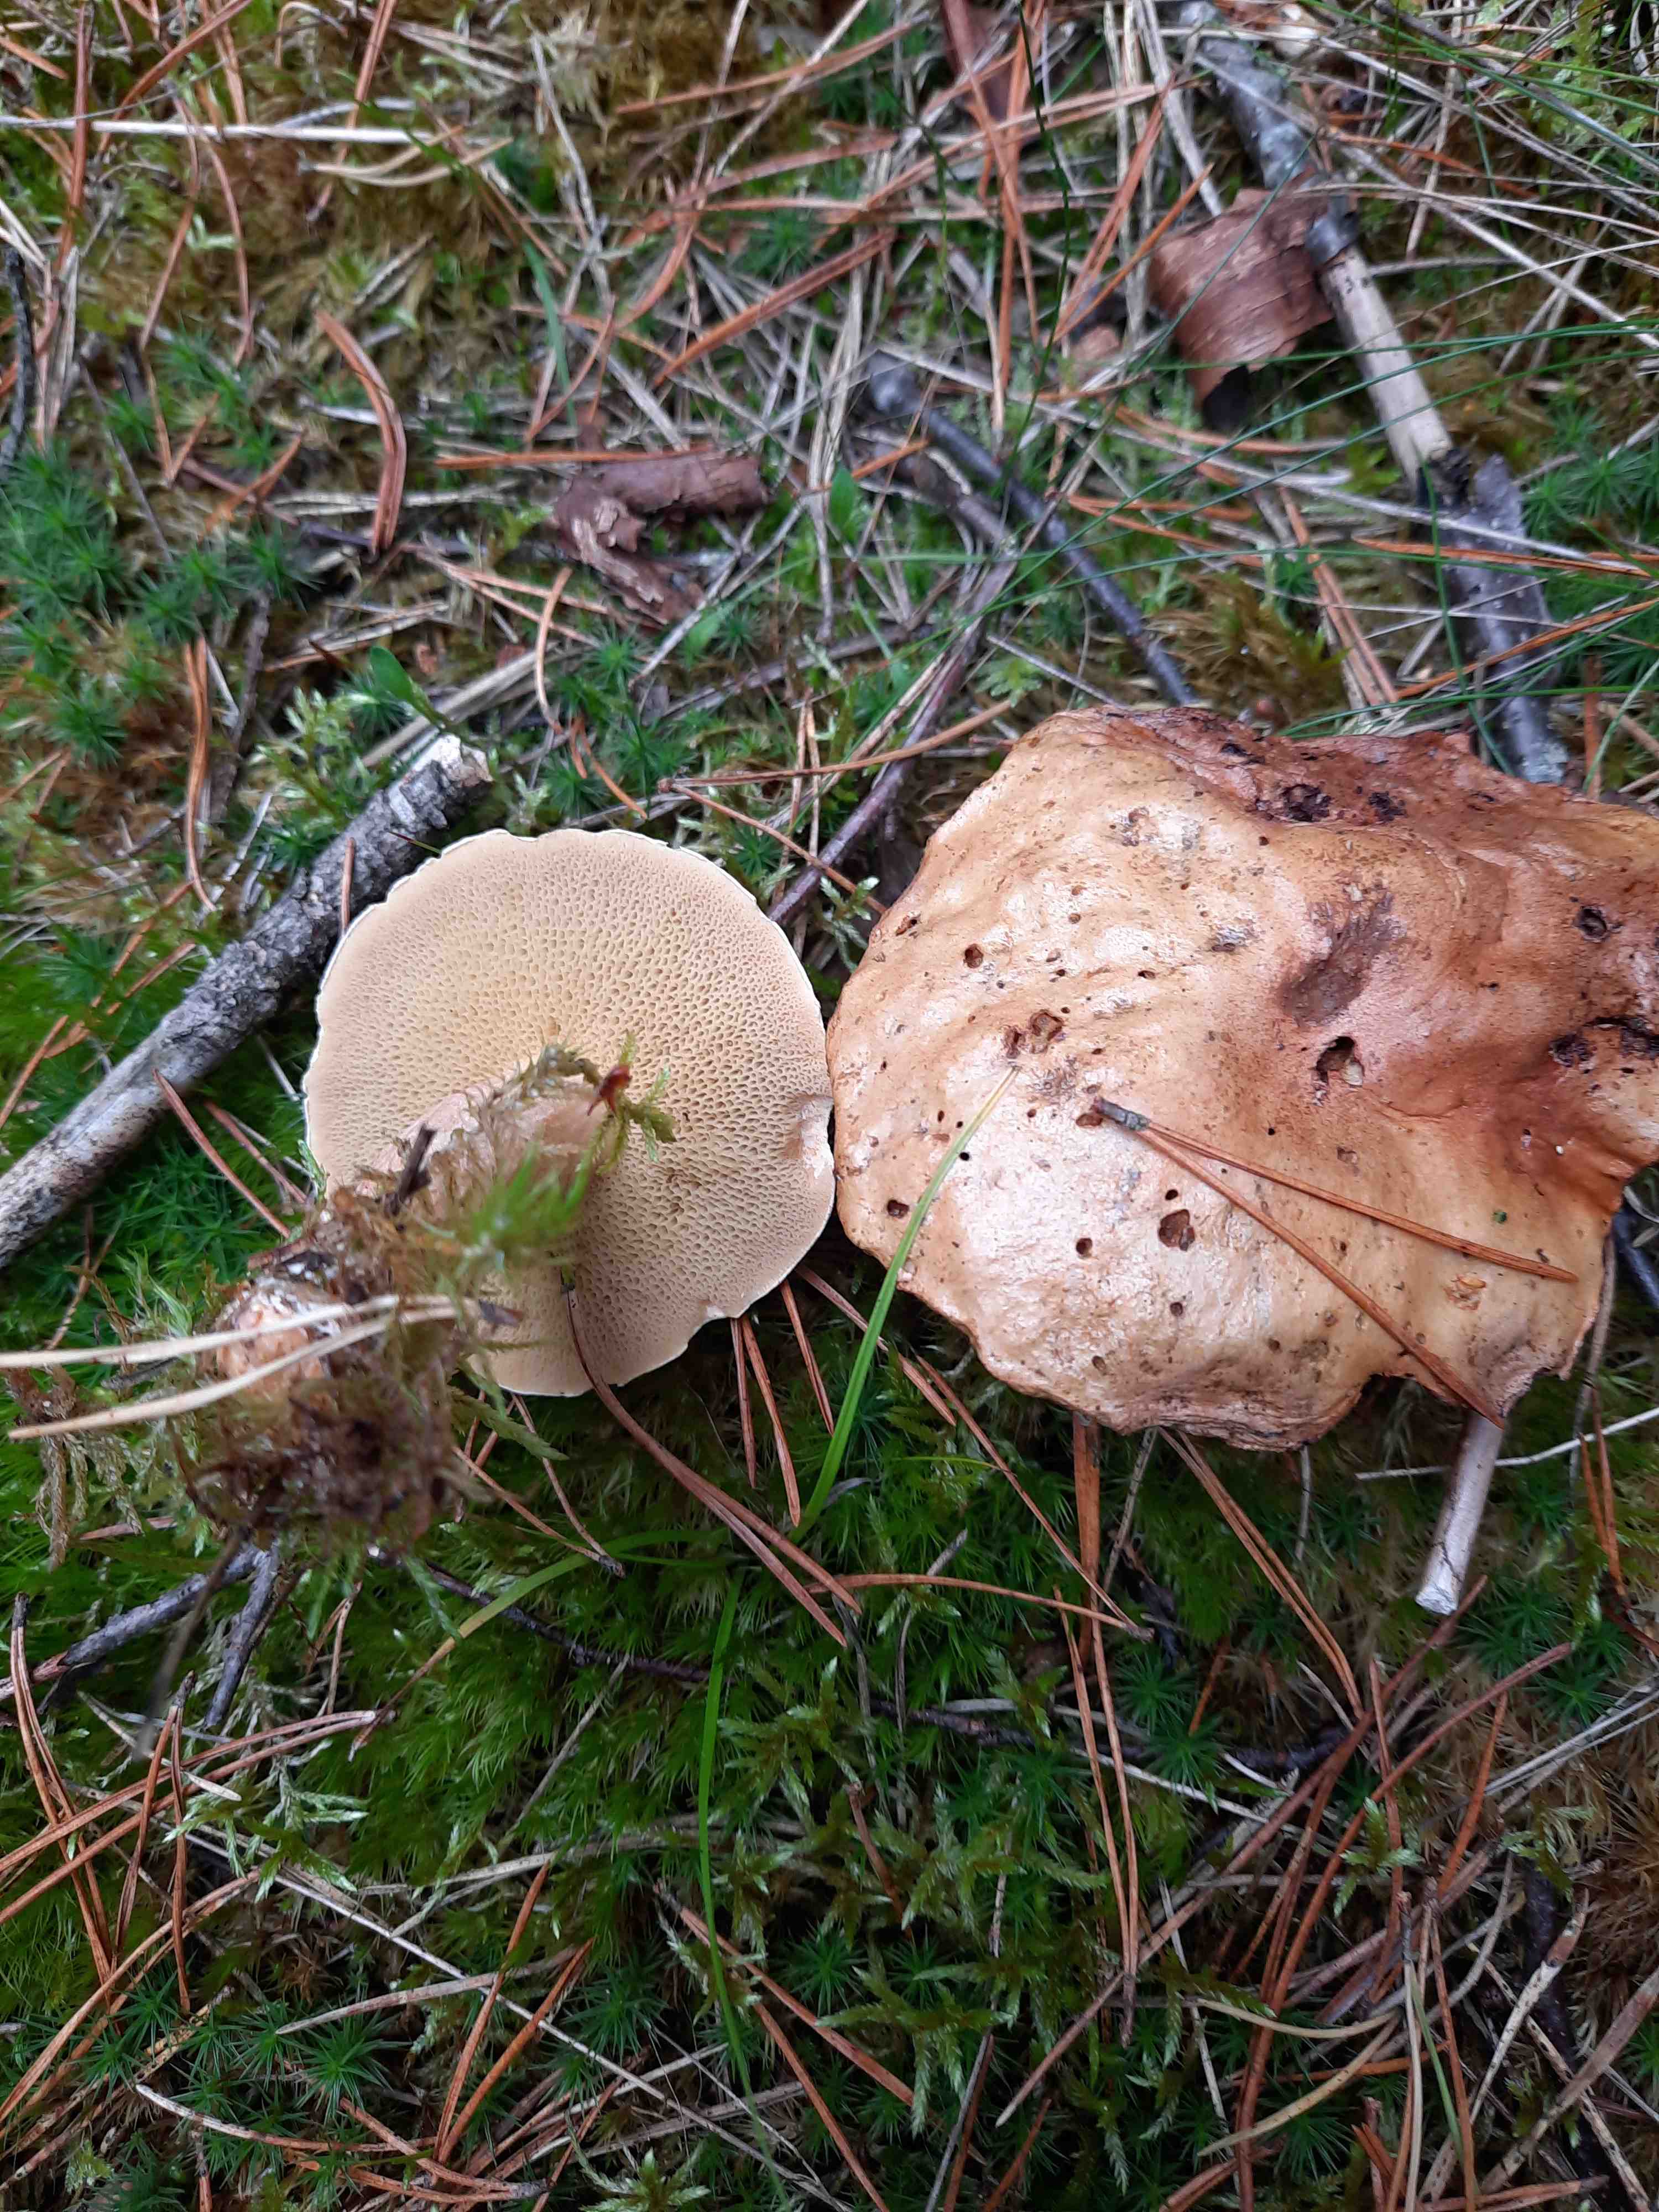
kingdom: Fungi
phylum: Basidiomycota
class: Agaricomycetes
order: Boletales
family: Suillaceae
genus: Suillus
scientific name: Suillus bovinus
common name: grovporet slimrørhat
